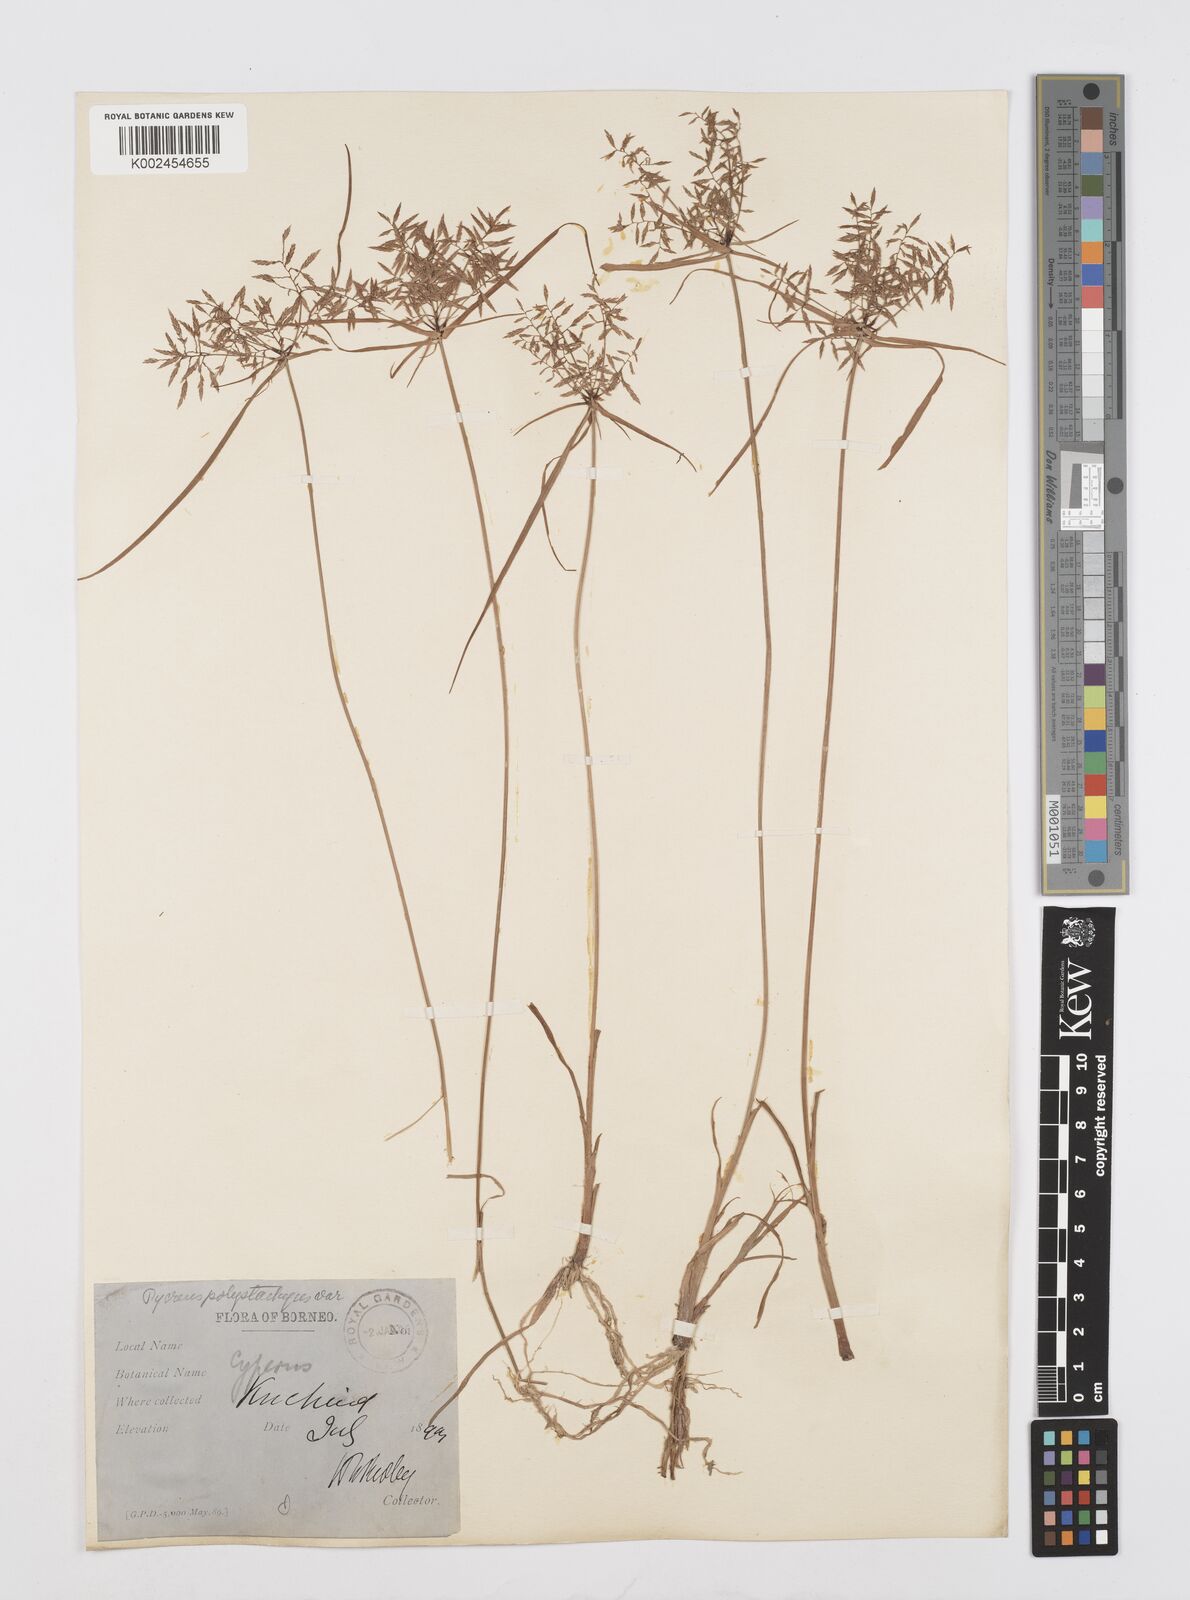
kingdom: Plantae
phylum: Tracheophyta
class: Liliopsida
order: Poales
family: Cyperaceae
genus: Cyperus
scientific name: Cyperus polystachyos
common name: Bunchy flat sedge
